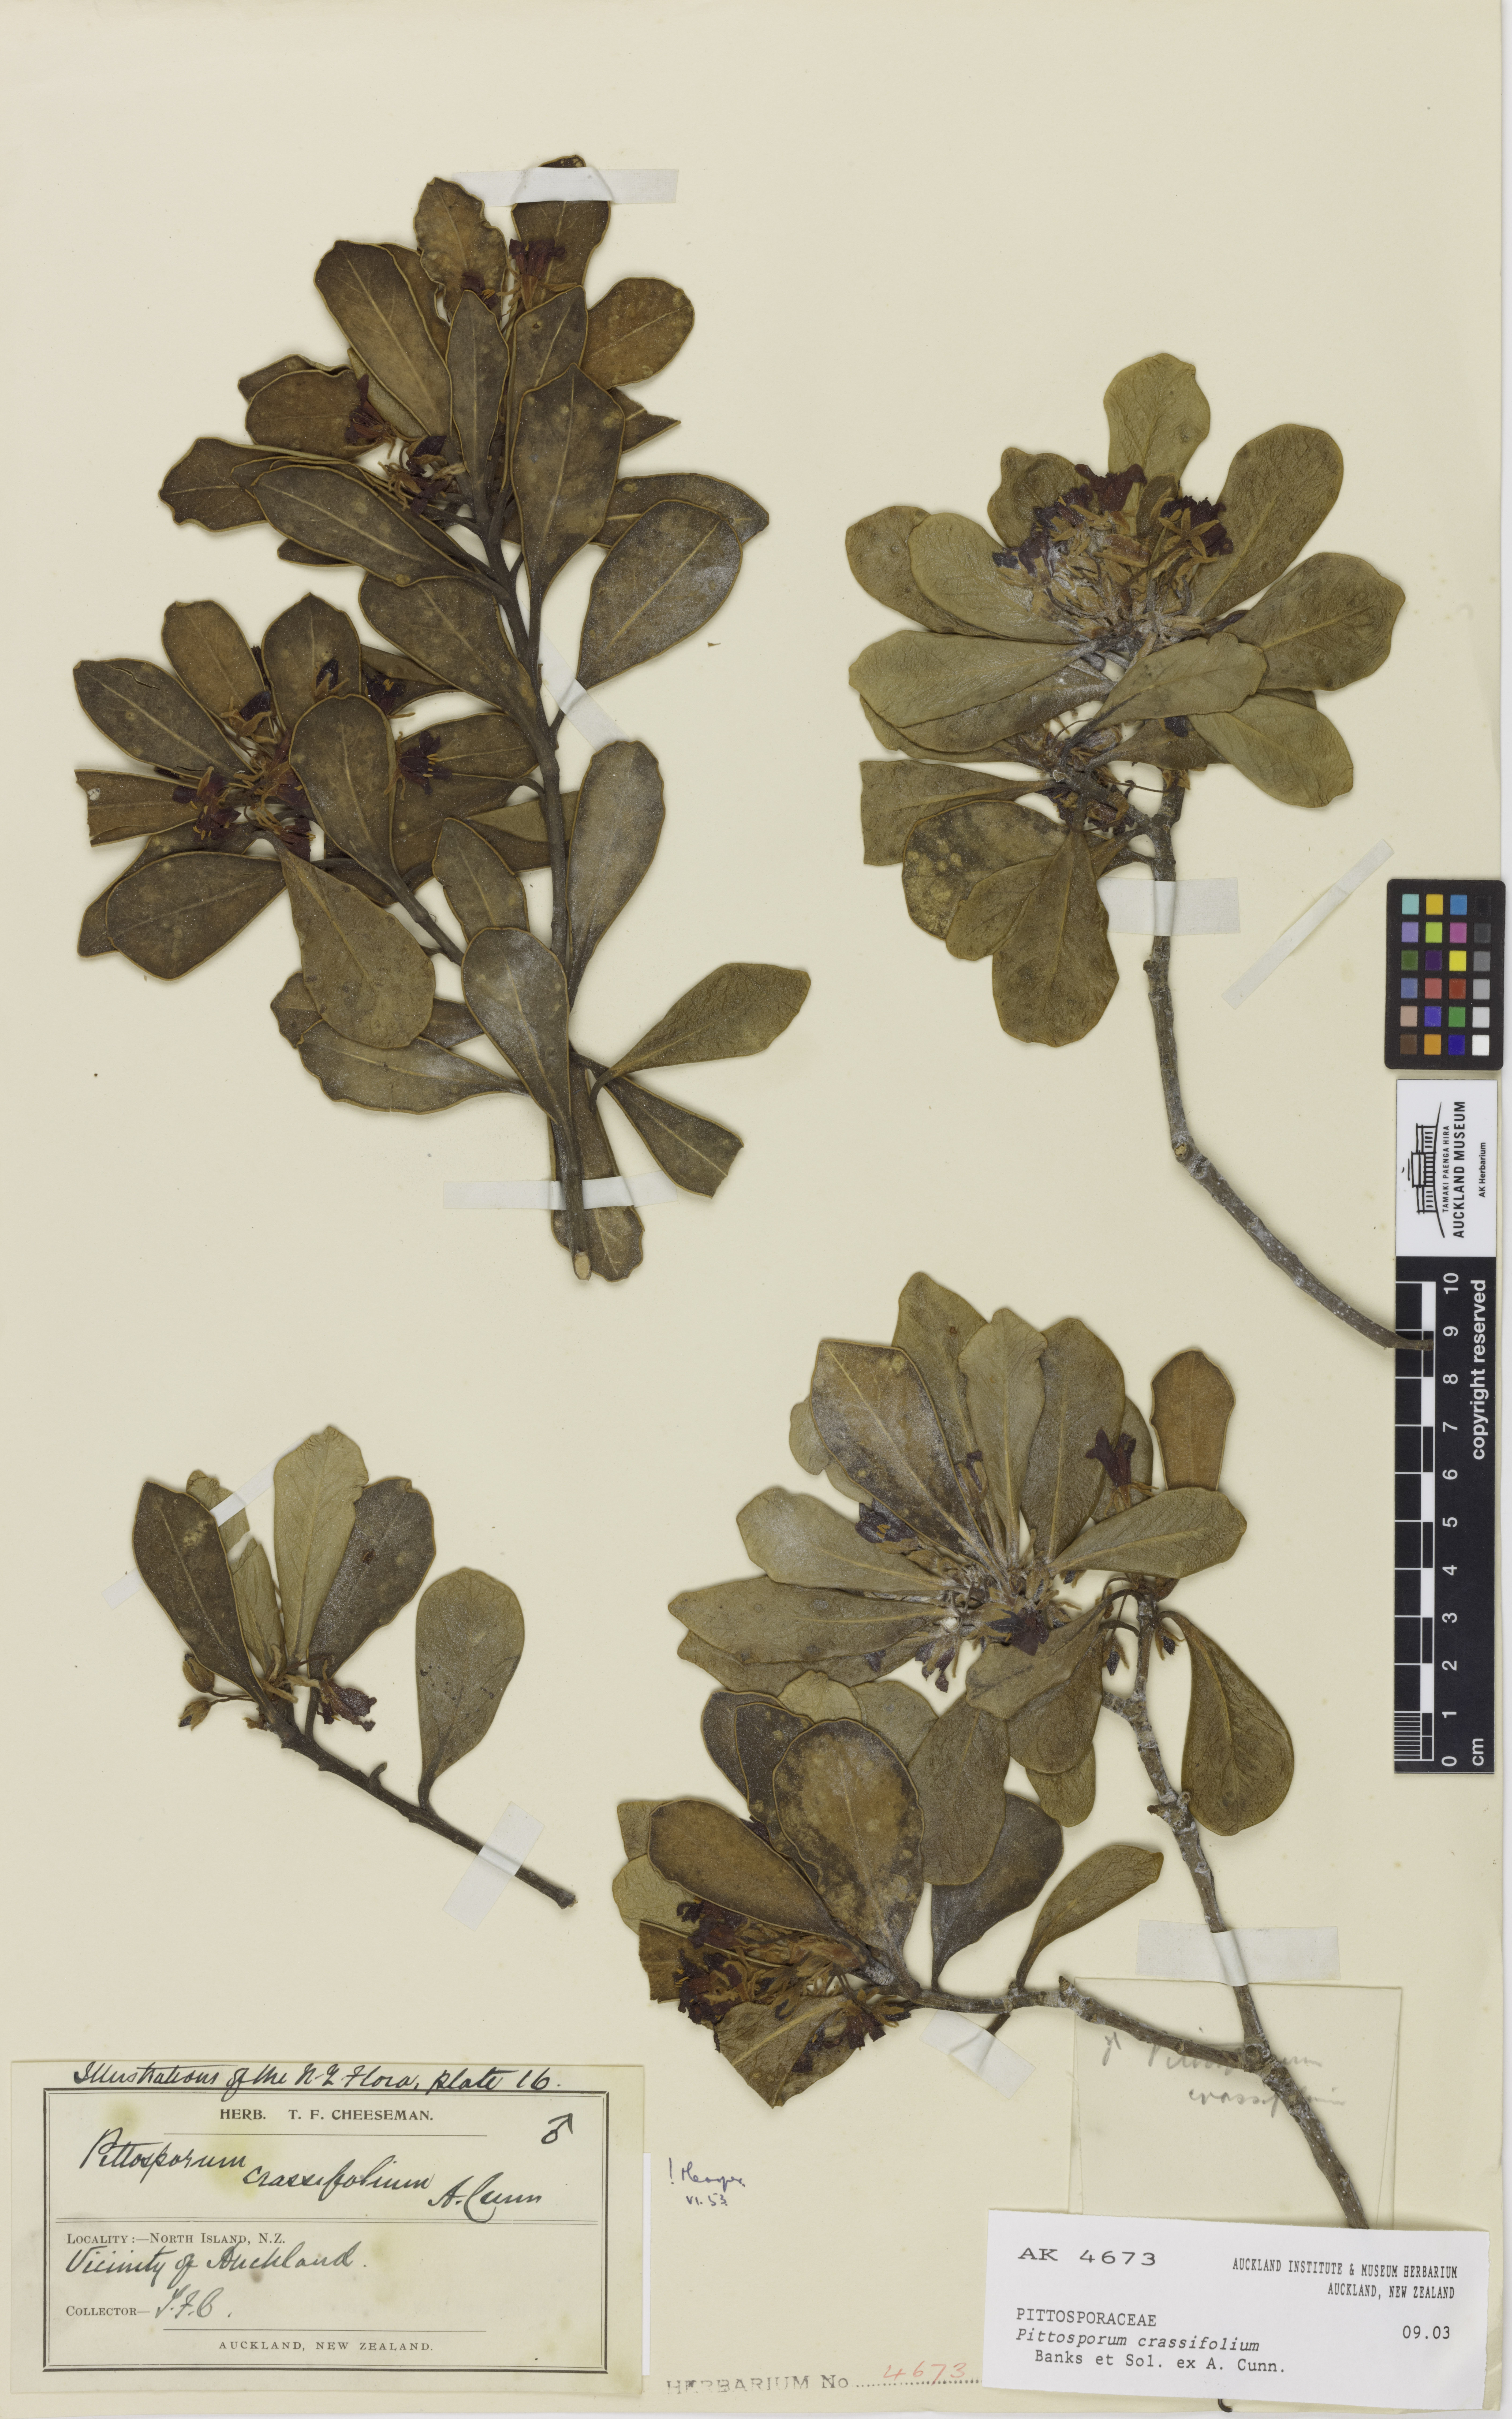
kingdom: Plantae
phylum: Tracheophyta
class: Magnoliopsida
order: Apiales
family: Pittosporaceae
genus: Pittosporum
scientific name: Pittosporum crassifolium
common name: Karo
